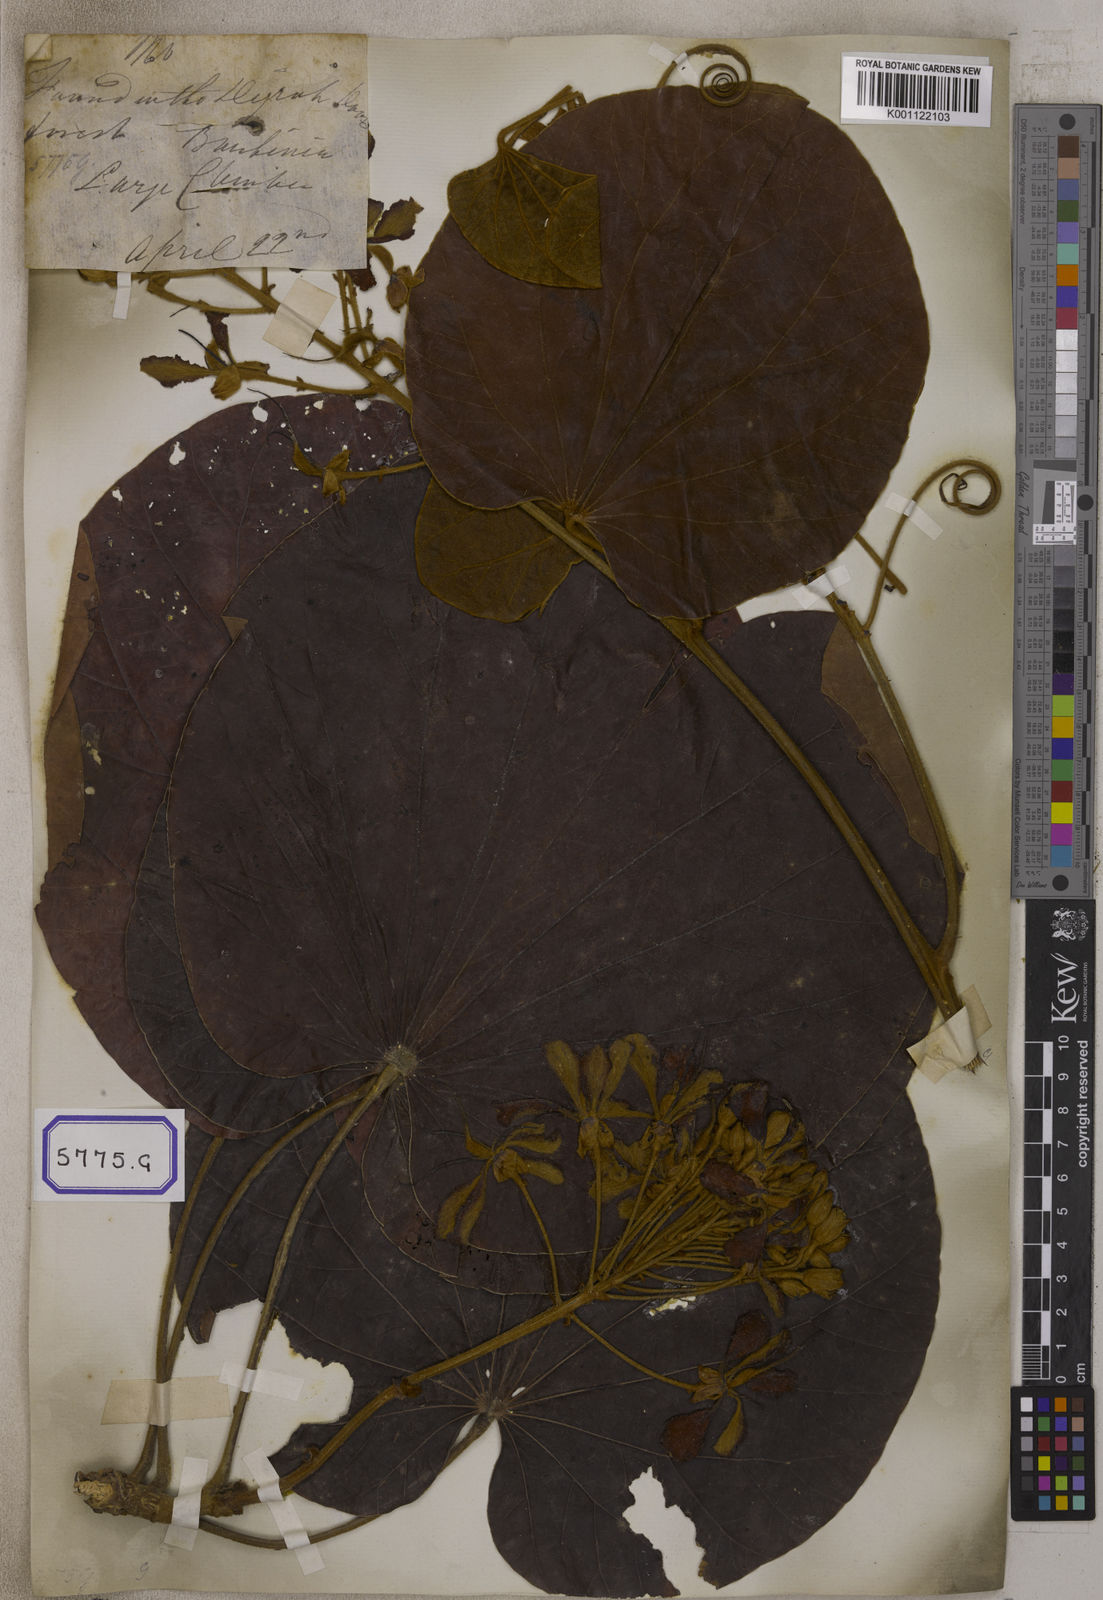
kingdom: Plantae
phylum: Tracheophyta
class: Magnoliopsida
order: Fabales
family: Fabaceae
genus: Bauhinia
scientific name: Bauhinia
